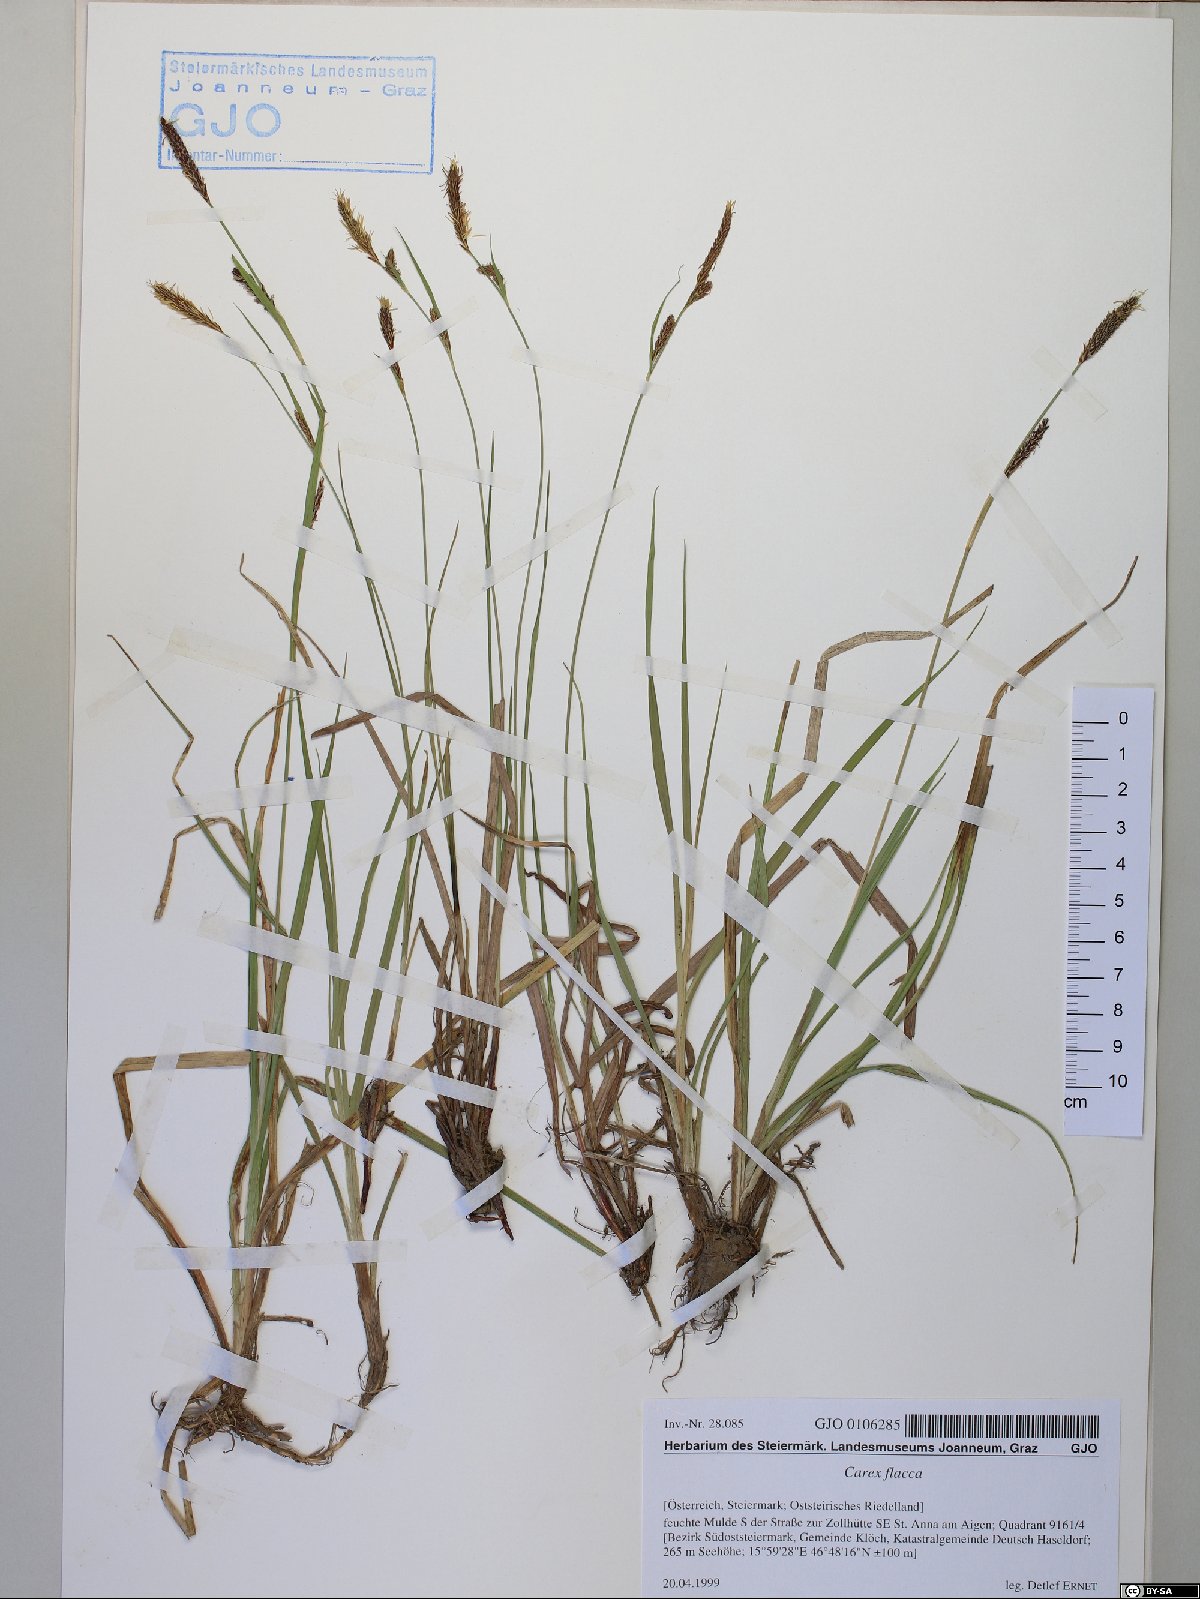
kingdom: Plantae
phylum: Tracheophyta
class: Liliopsida
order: Poales
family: Cyperaceae
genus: Carex
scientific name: Carex flacca
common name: Glaucous sedge
